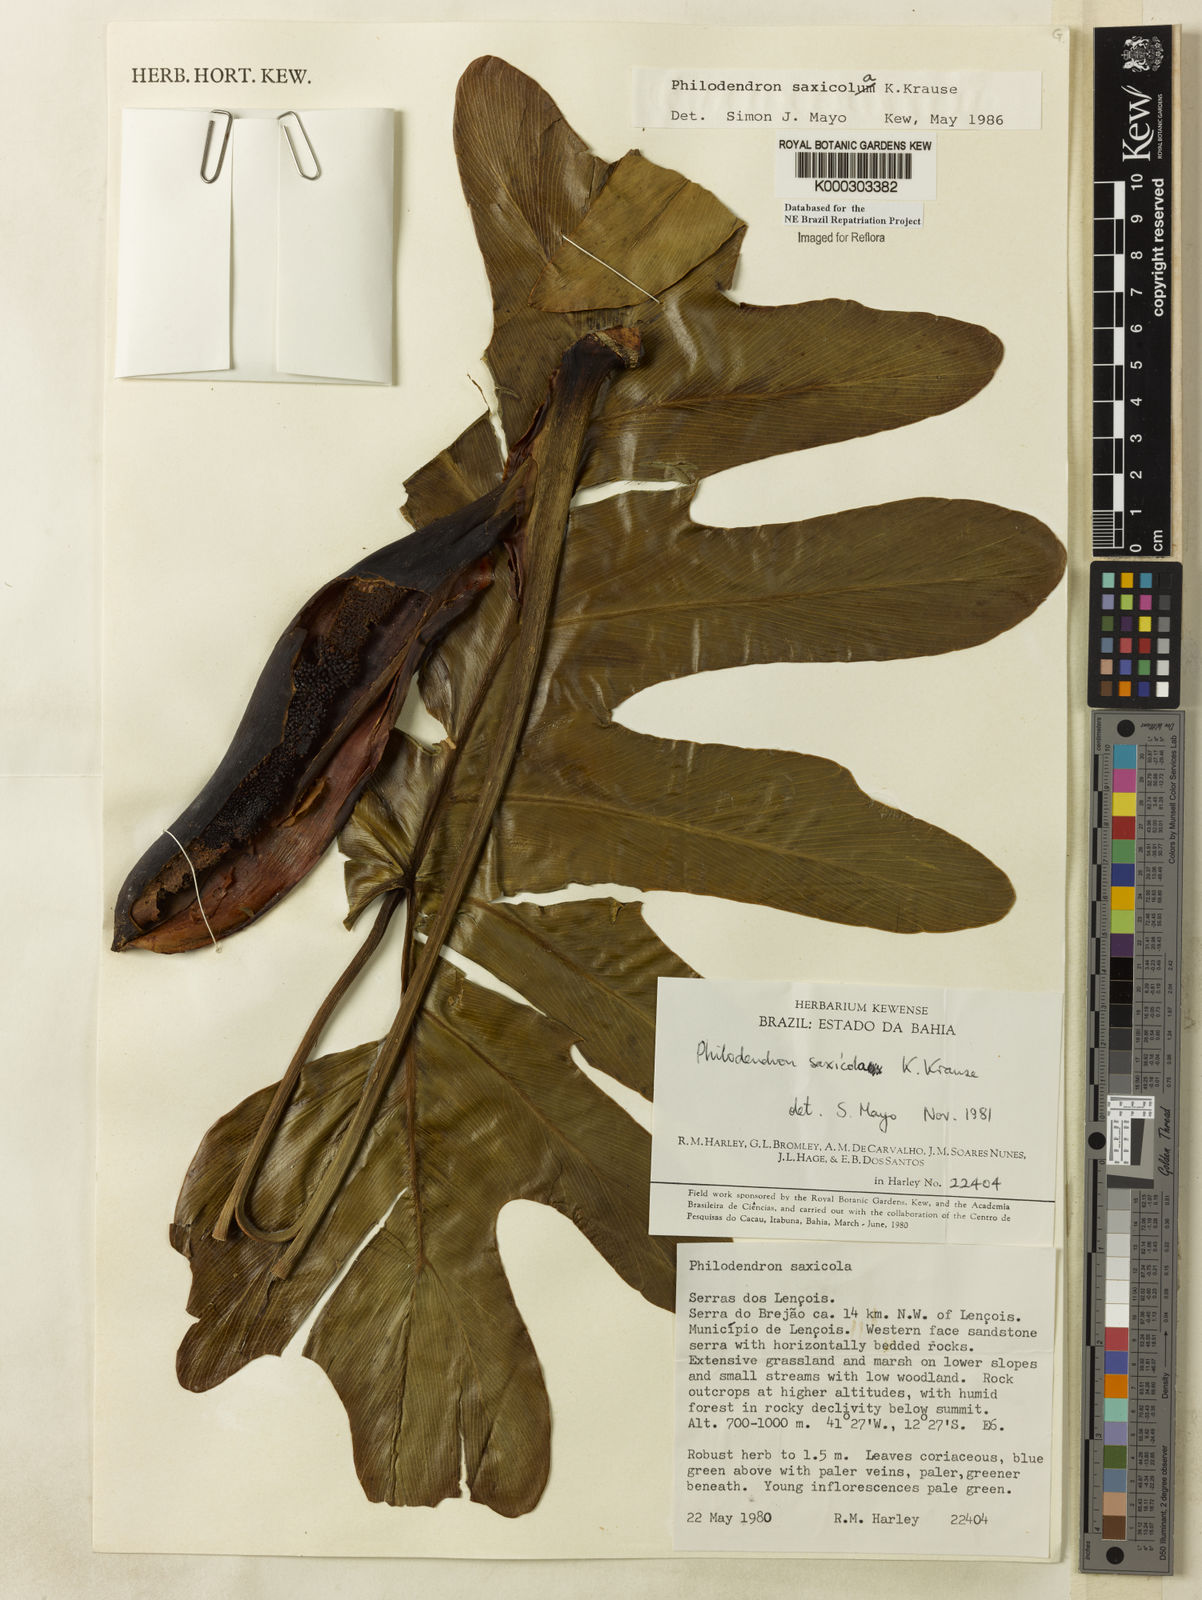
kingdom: Plantae
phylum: Tracheophyta
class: Liliopsida
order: Alismatales
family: Araceae
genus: Thaumatophyllum
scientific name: Thaumatophyllum saxicola
